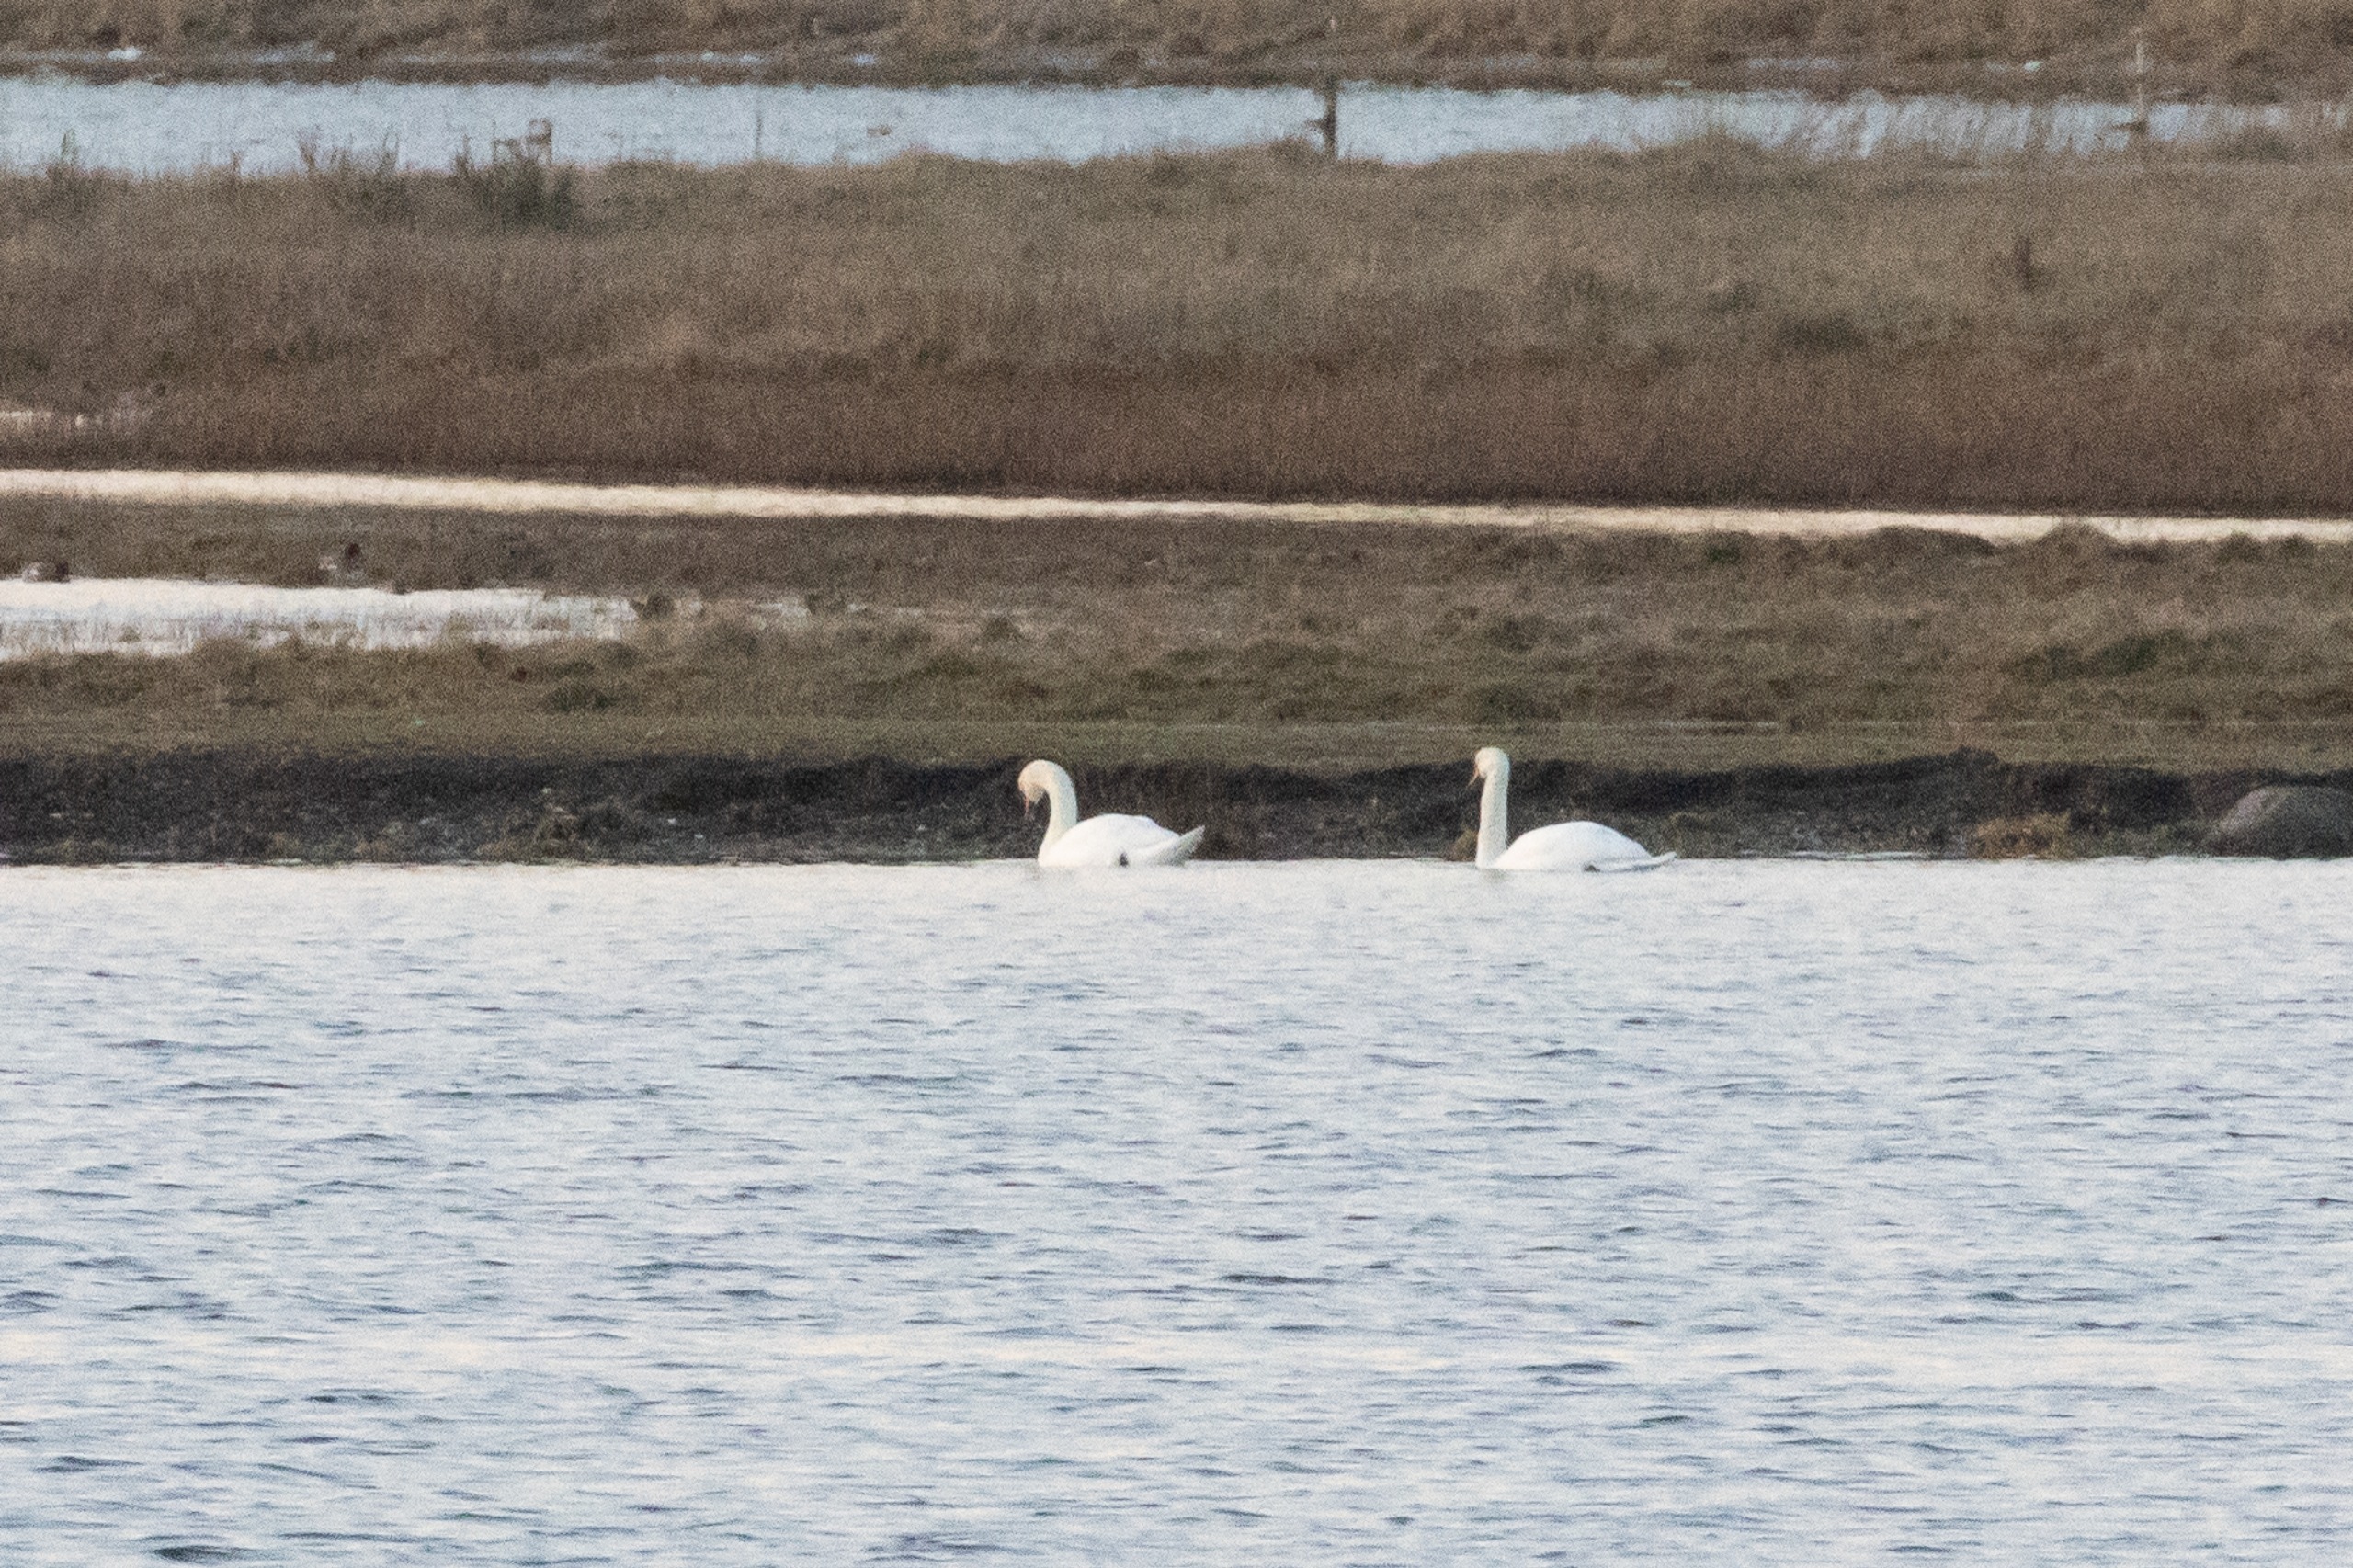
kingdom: Animalia
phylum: Chordata
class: Aves
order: Anseriformes
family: Anatidae
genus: Cygnus
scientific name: Cygnus olor
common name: Knopsvane
